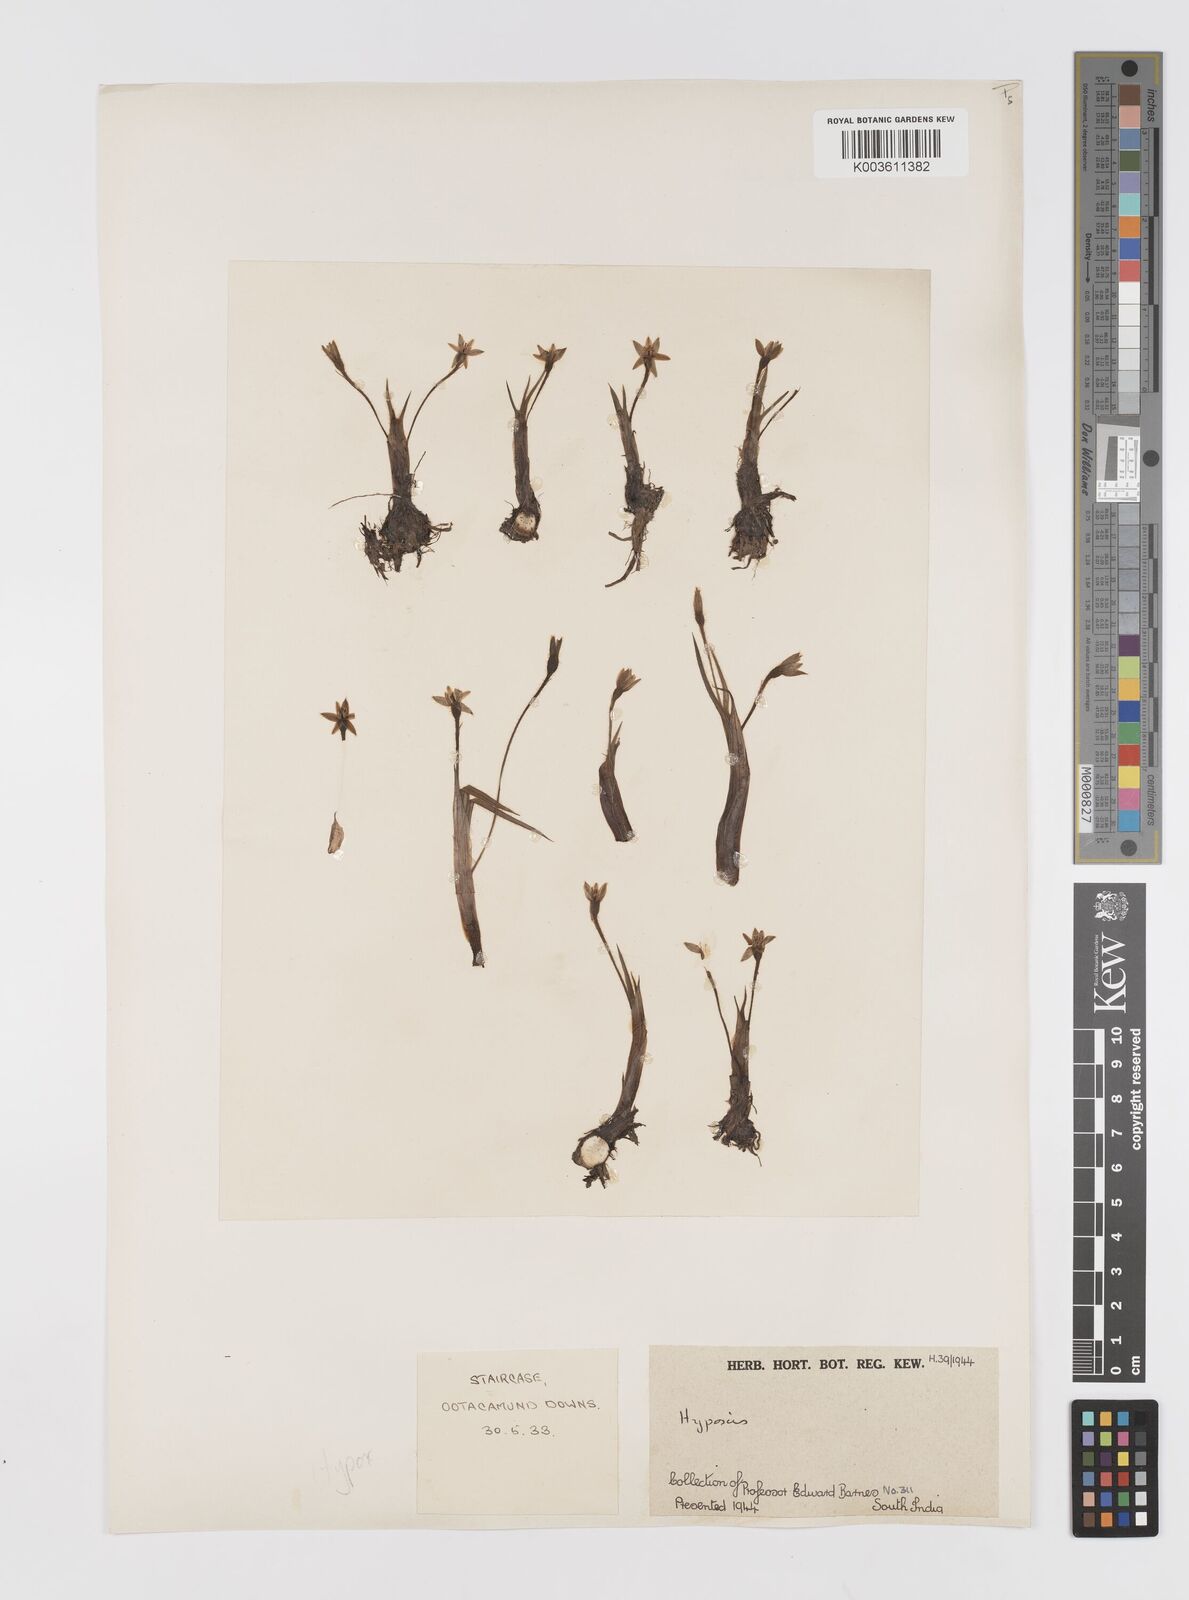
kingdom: Plantae
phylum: Tracheophyta
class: Liliopsida
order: Asparagales
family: Hypoxidaceae
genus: Hypoxis
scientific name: Hypoxis aurea
